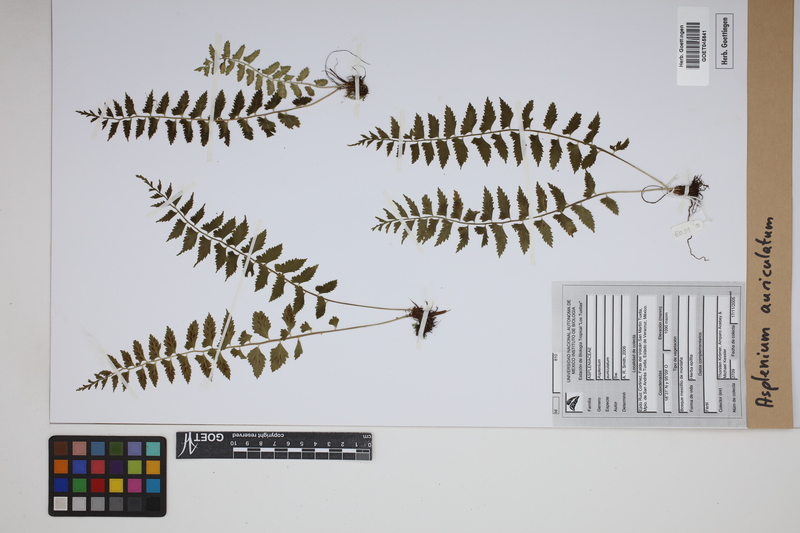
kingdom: Plantae
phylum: Tracheophyta
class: Polypodiopsida
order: Polypodiales
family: Aspleniaceae
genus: Asplenium
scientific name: Asplenium auriculatum
